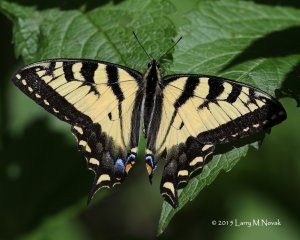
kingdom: Animalia
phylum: Arthropoda
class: Insecta
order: Lepidoptera
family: Papilionidae
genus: Pterourus
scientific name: Pterourus canadensis
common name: Canadian Tiger Swallowtail
